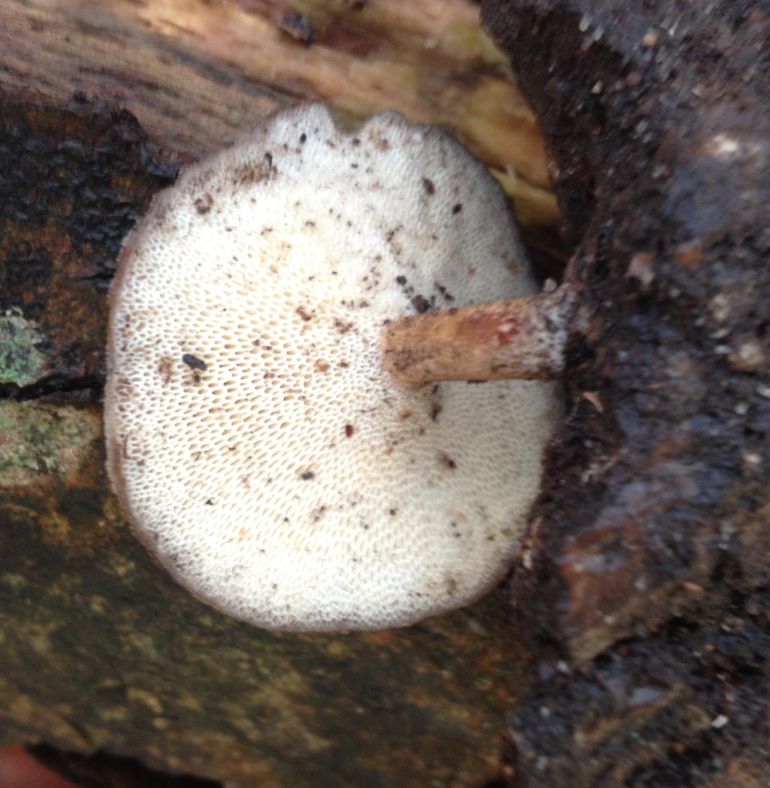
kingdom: Fungi
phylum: Basidiomycota
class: Agaricomycetes
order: Polyporales
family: Polyporaceae
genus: Lentinus
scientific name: Lentinus brumalis
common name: vinter-stilkporesvamp
